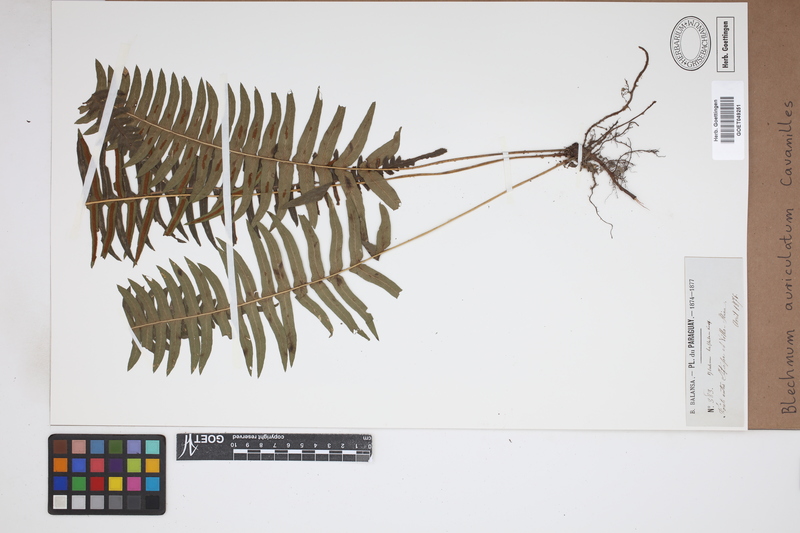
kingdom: Plantae
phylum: Tracheophyta
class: Polypodiopsida
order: Polypodiales
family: Blechnaceae
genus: Blechnum
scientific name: Blechnum auriculatum
